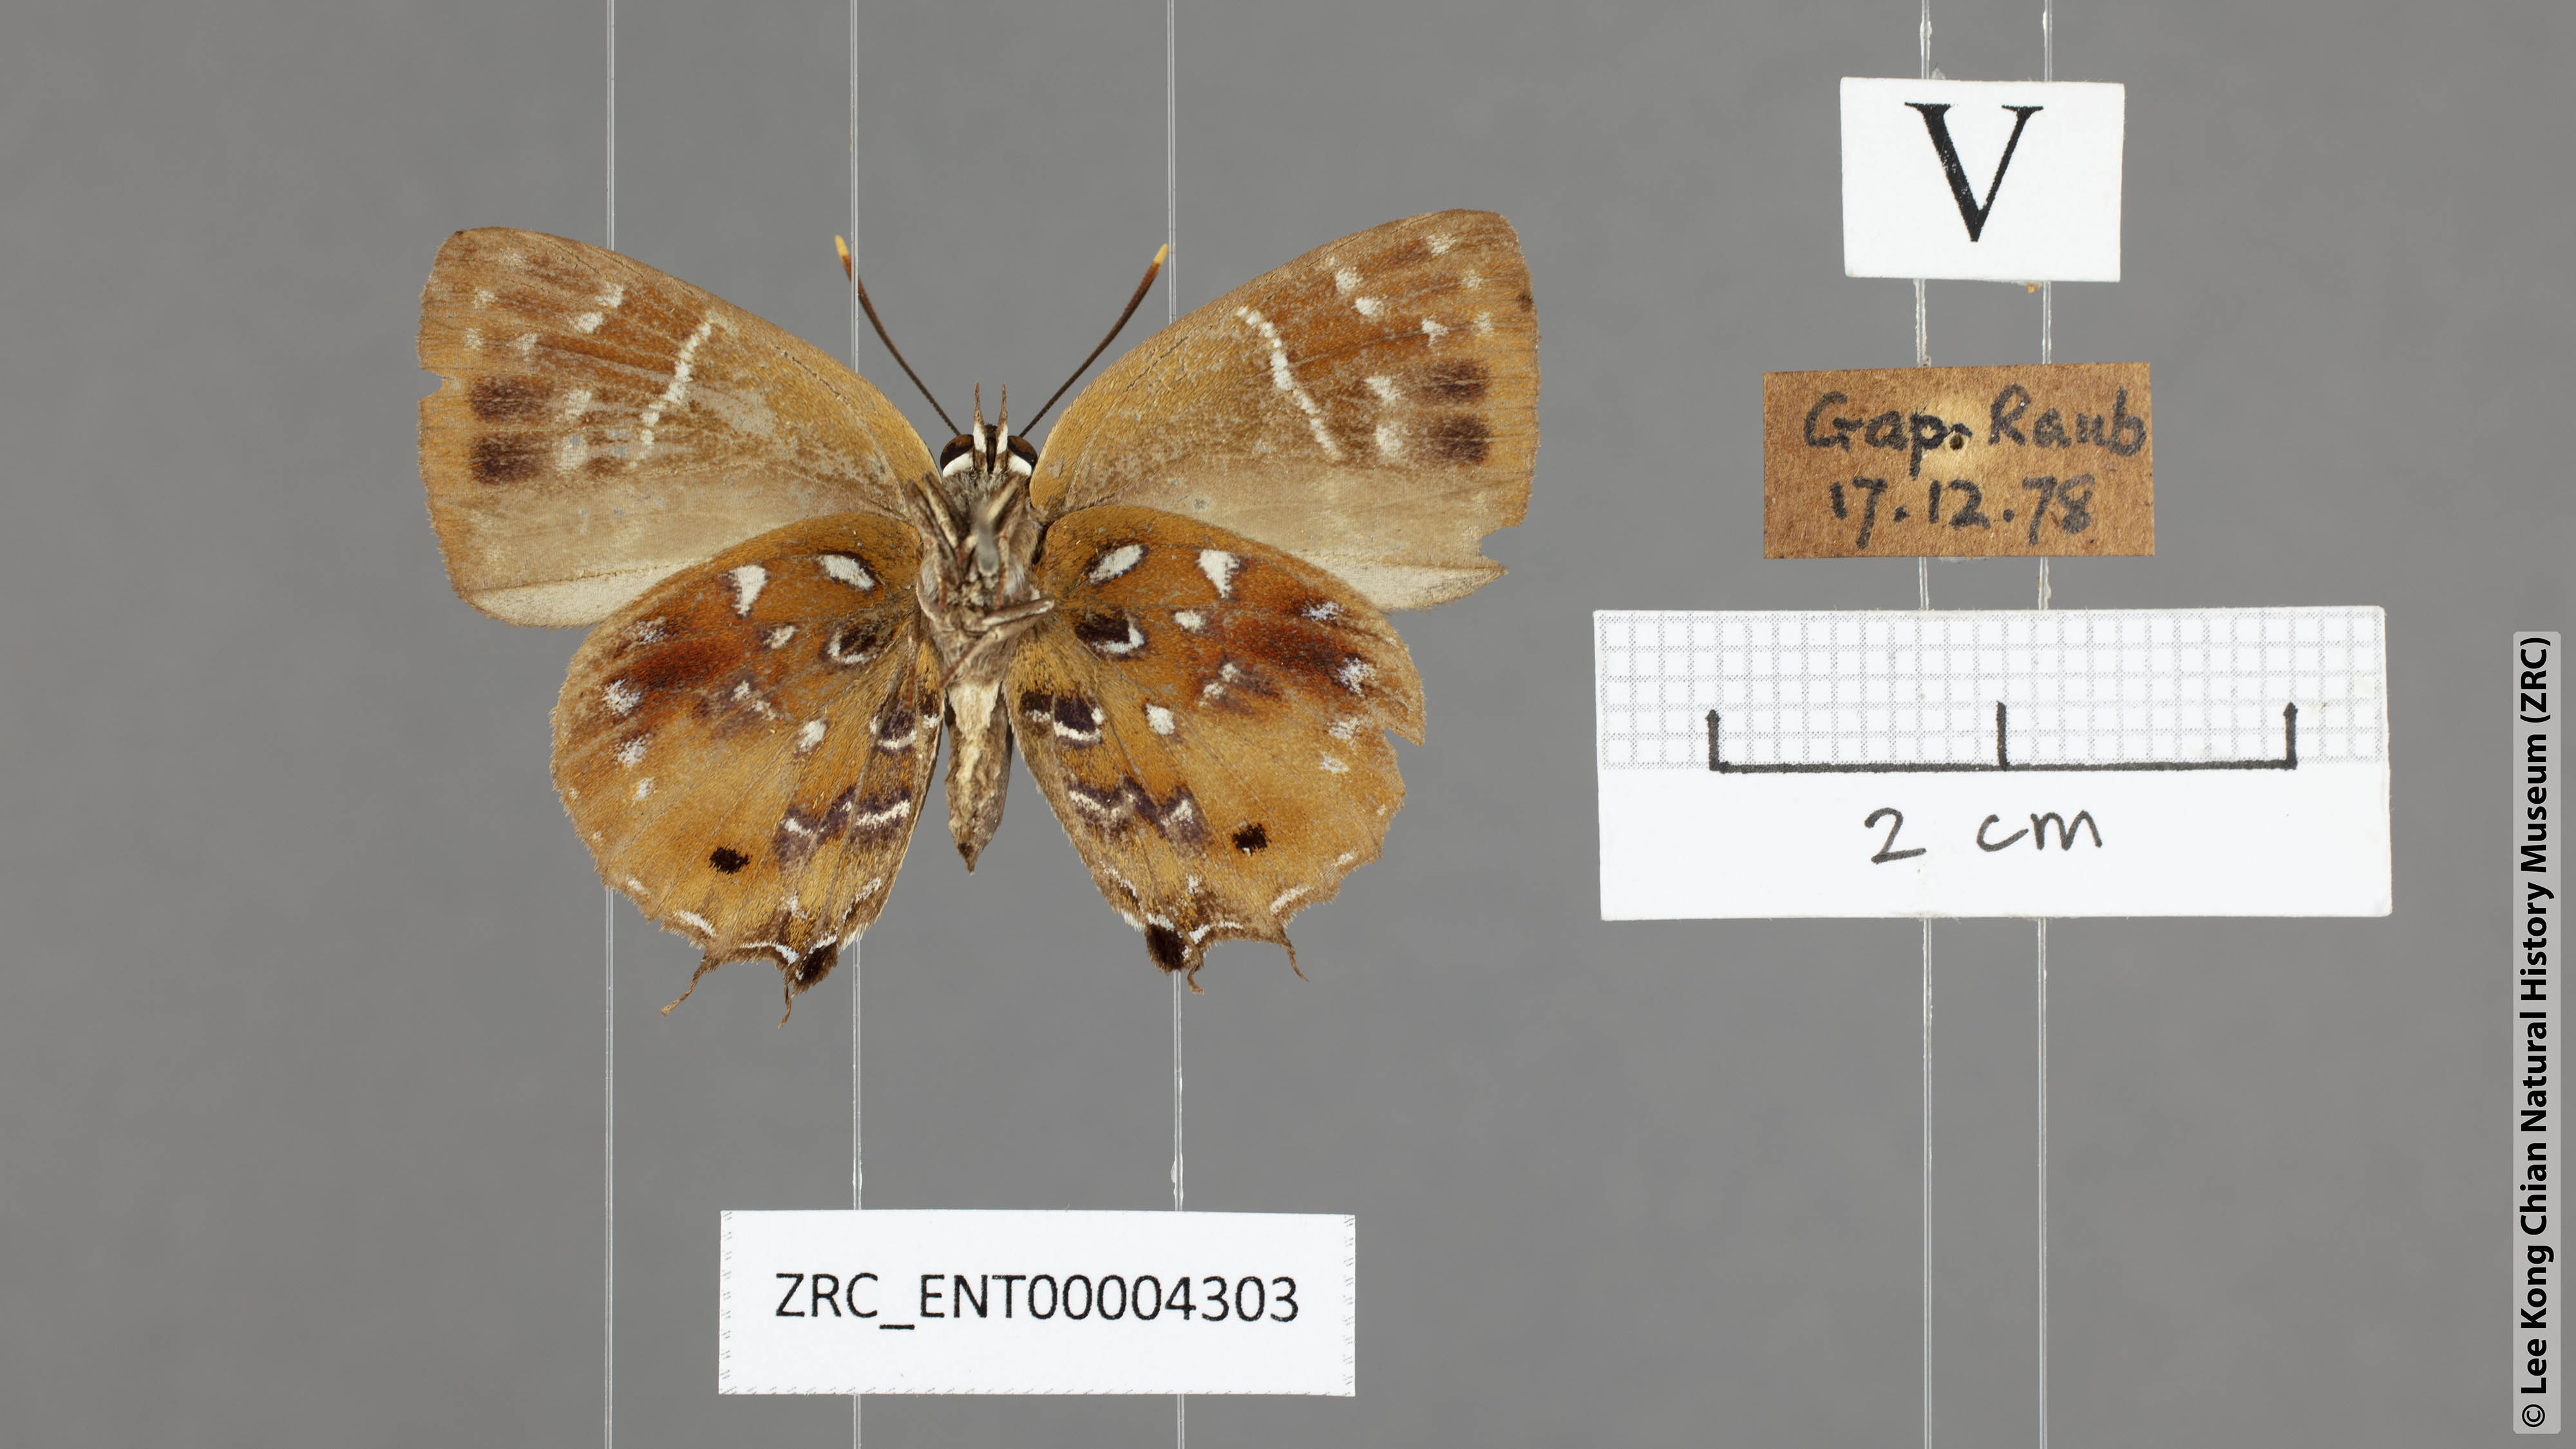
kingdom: Animalia
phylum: Arthropoda
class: Insecta
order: Lepidoptera
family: Lycaenidae
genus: Iraota
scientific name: Iraota
